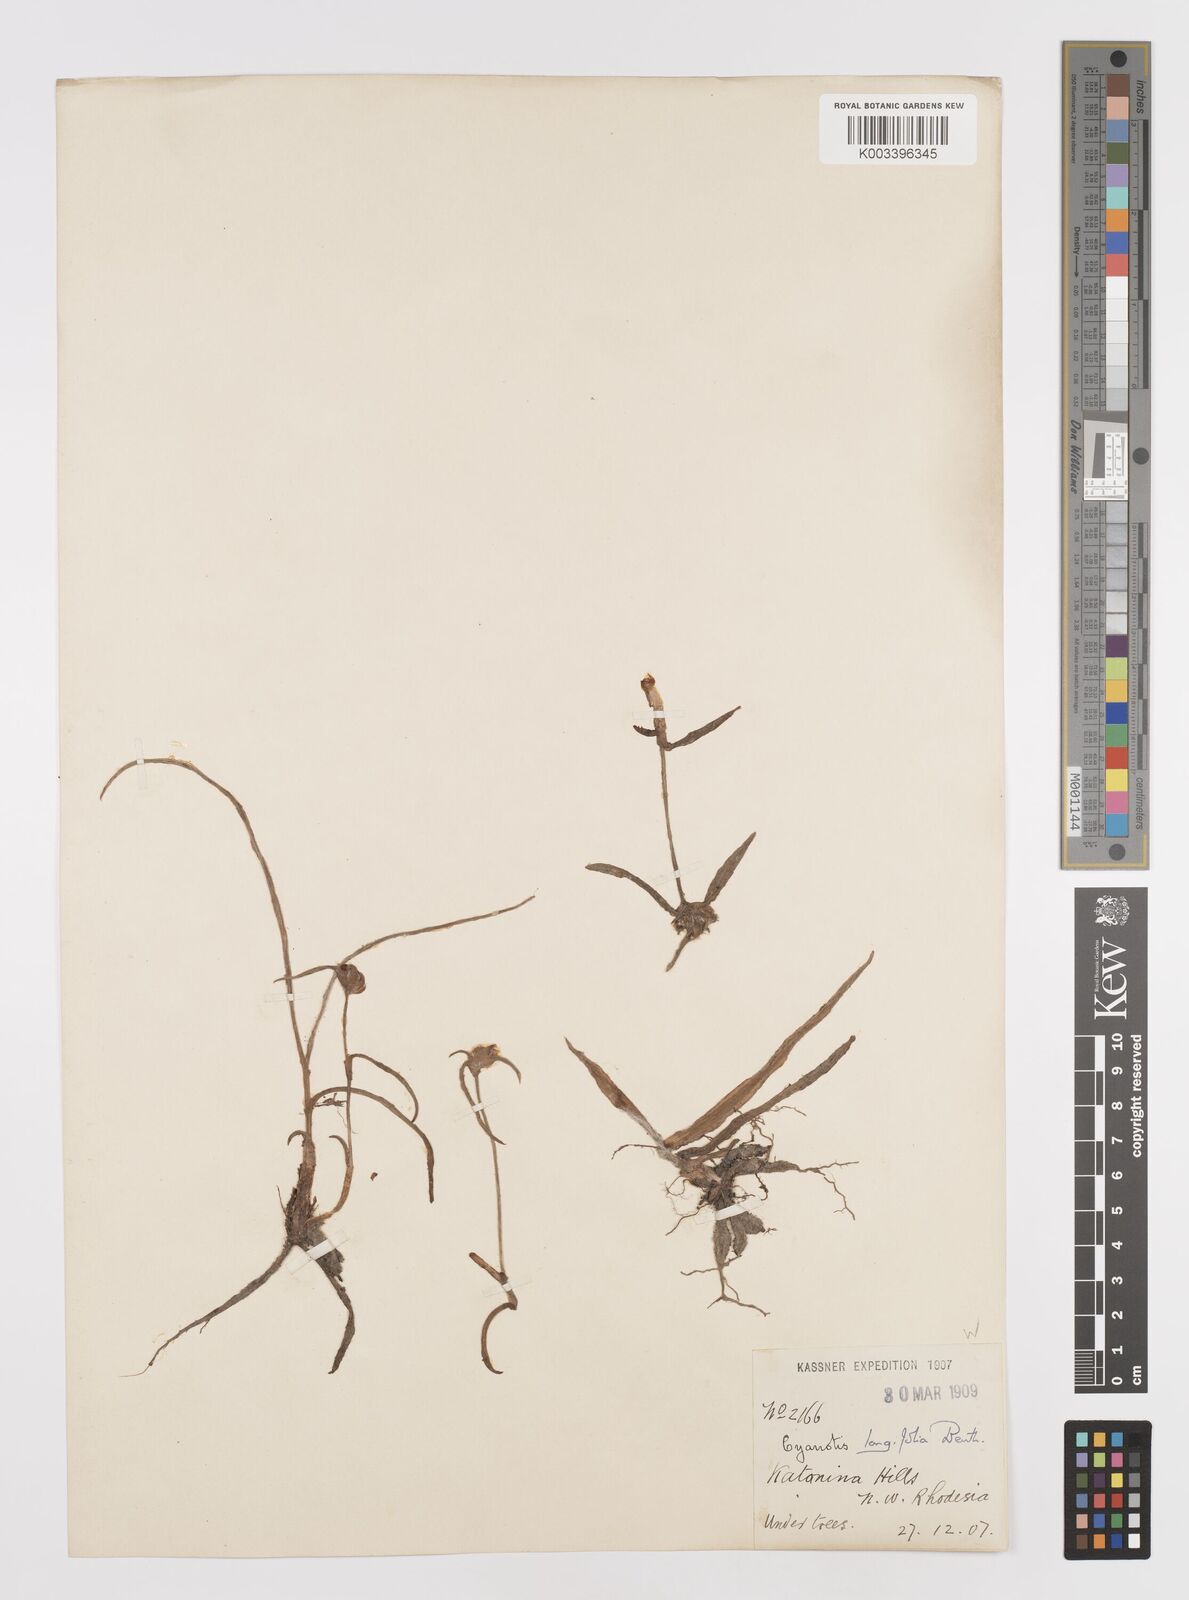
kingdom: Plantae
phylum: Tracheophyta
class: Liliopsida
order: Commelinales
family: Commelinaceae
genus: Cyanotis
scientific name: Cyanotis longifolia
